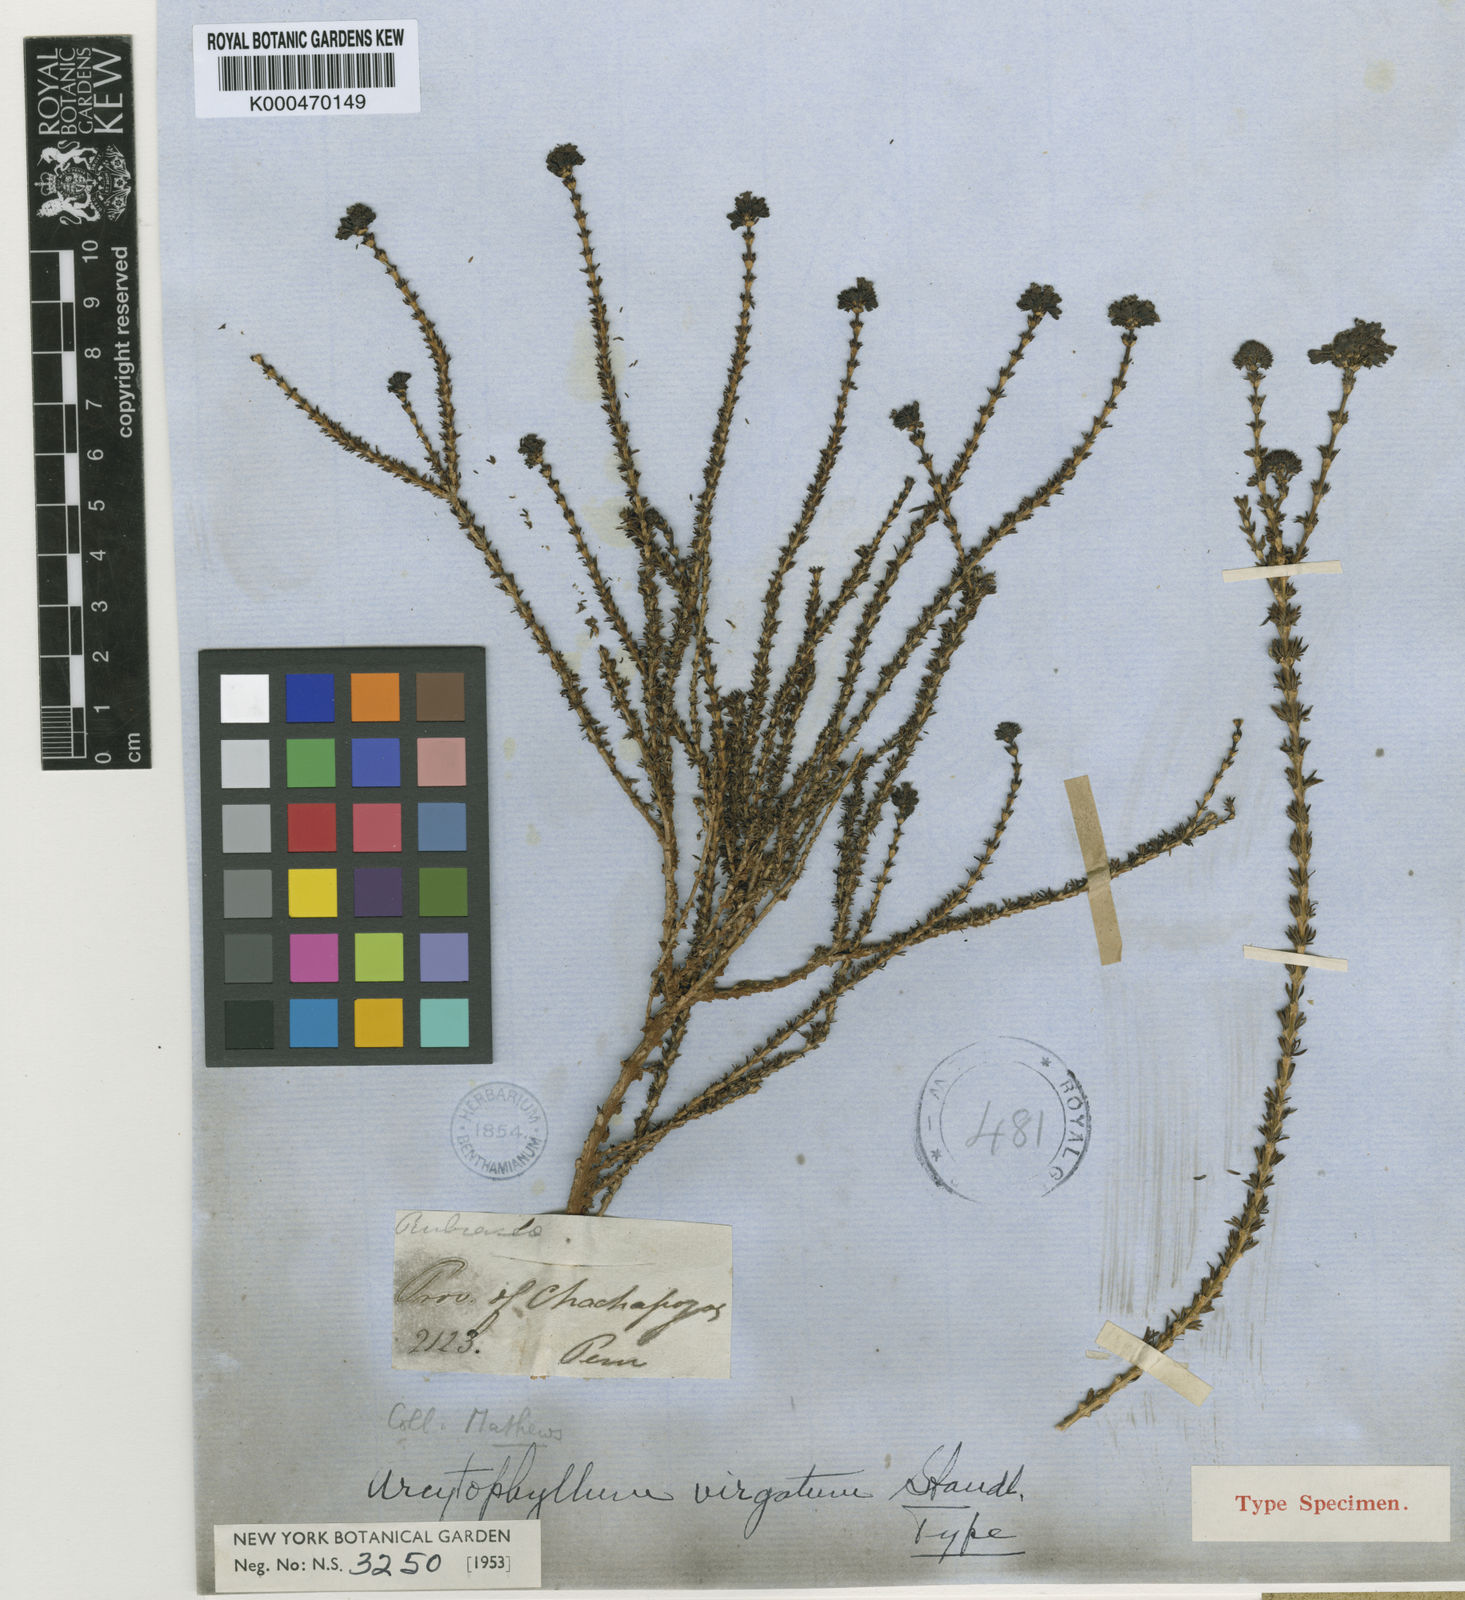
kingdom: Plantae
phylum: Tracheophyta
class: Magnoliopsida
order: Gentianales
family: Rubiaceae
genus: Arcytophyllum
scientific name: Arcytophyllum ericoides
